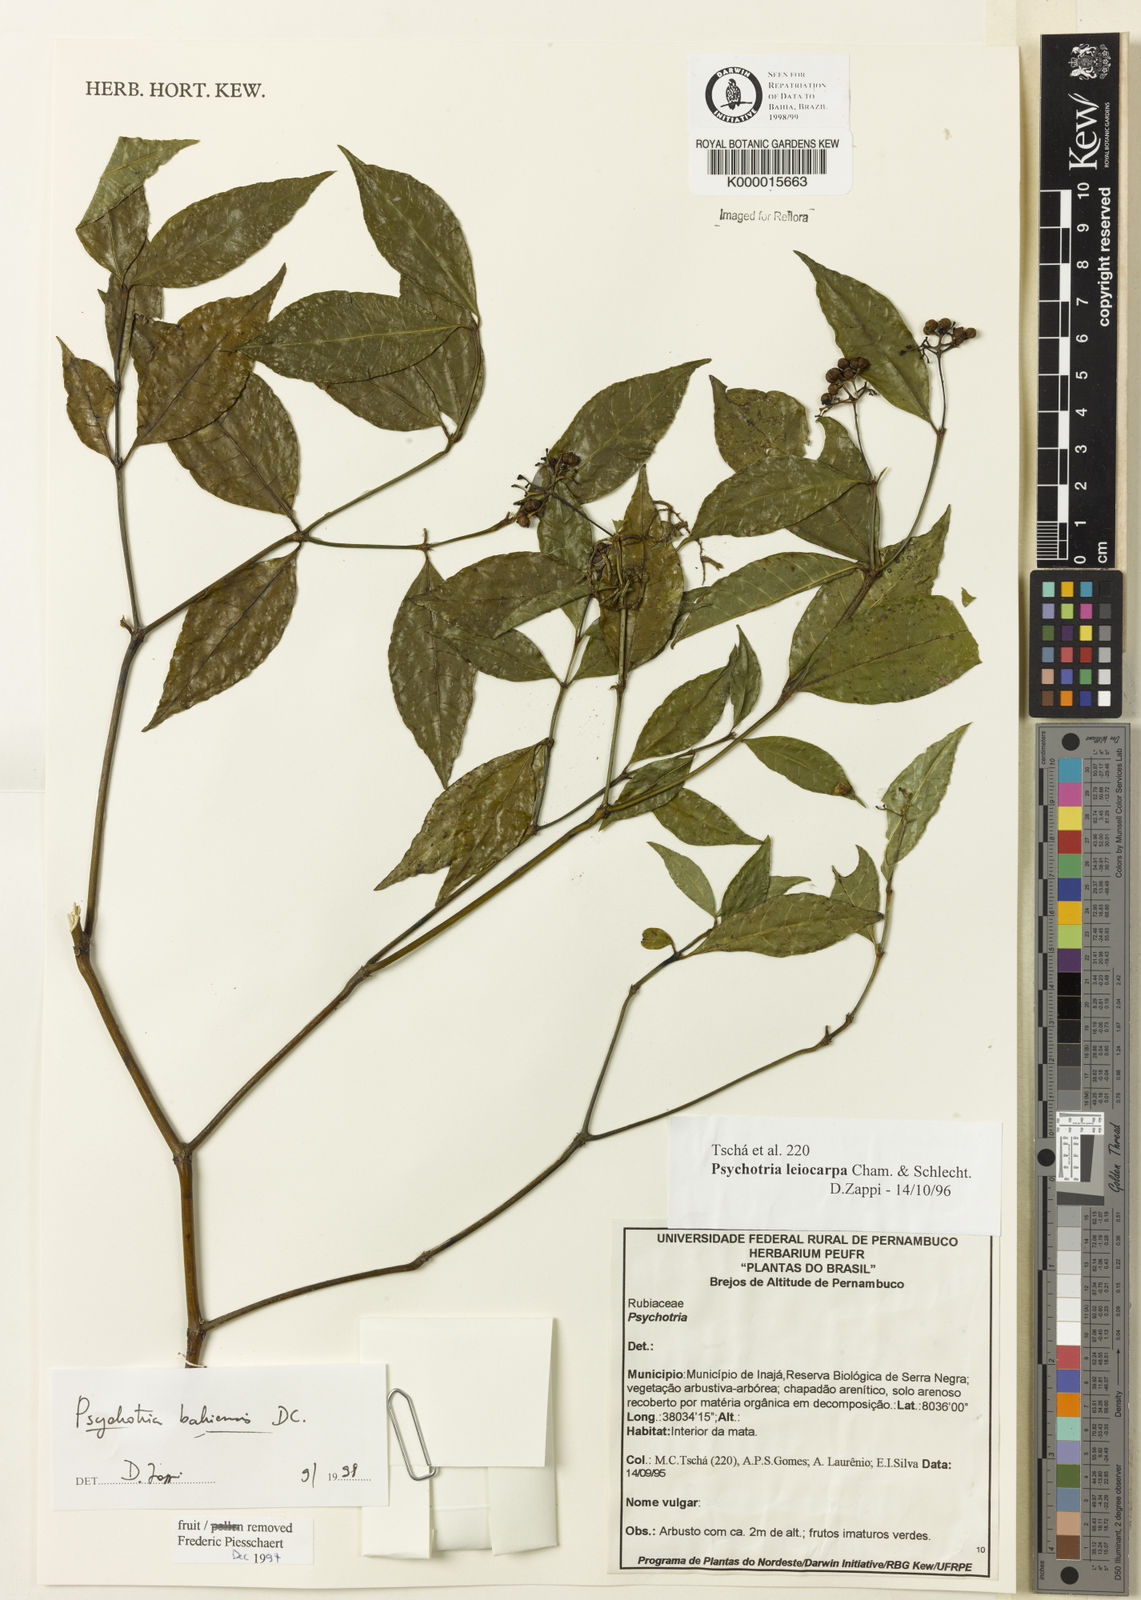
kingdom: Plantae
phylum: Tracheophyta
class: Magnoliopsida
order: Gentianales
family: Rubiaceae
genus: Psychotria
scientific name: Psychotria bahiensis
